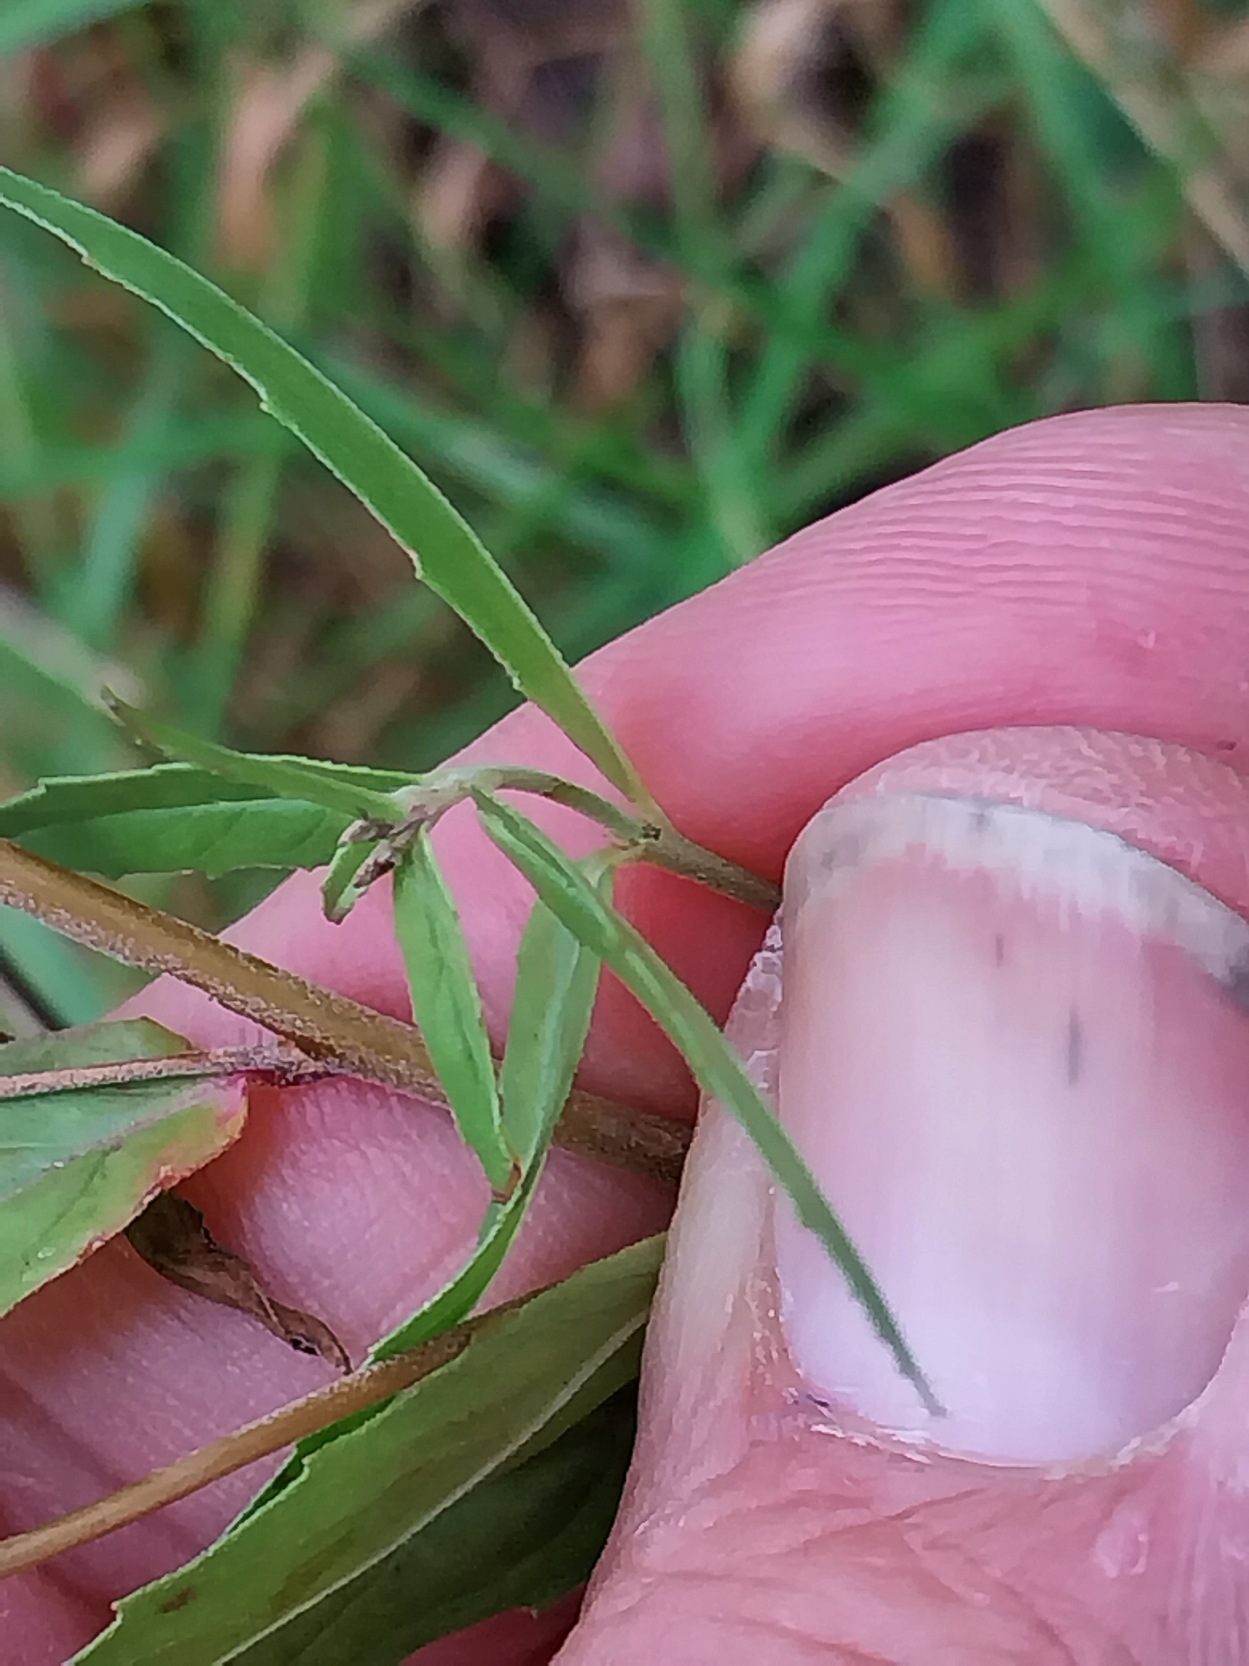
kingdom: Plantae
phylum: Tracheophyta
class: Magnoliopsida
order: Myrtales
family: Onagraceae
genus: Epilobium
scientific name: Epilobium tetragonum
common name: Kantet dueurt
